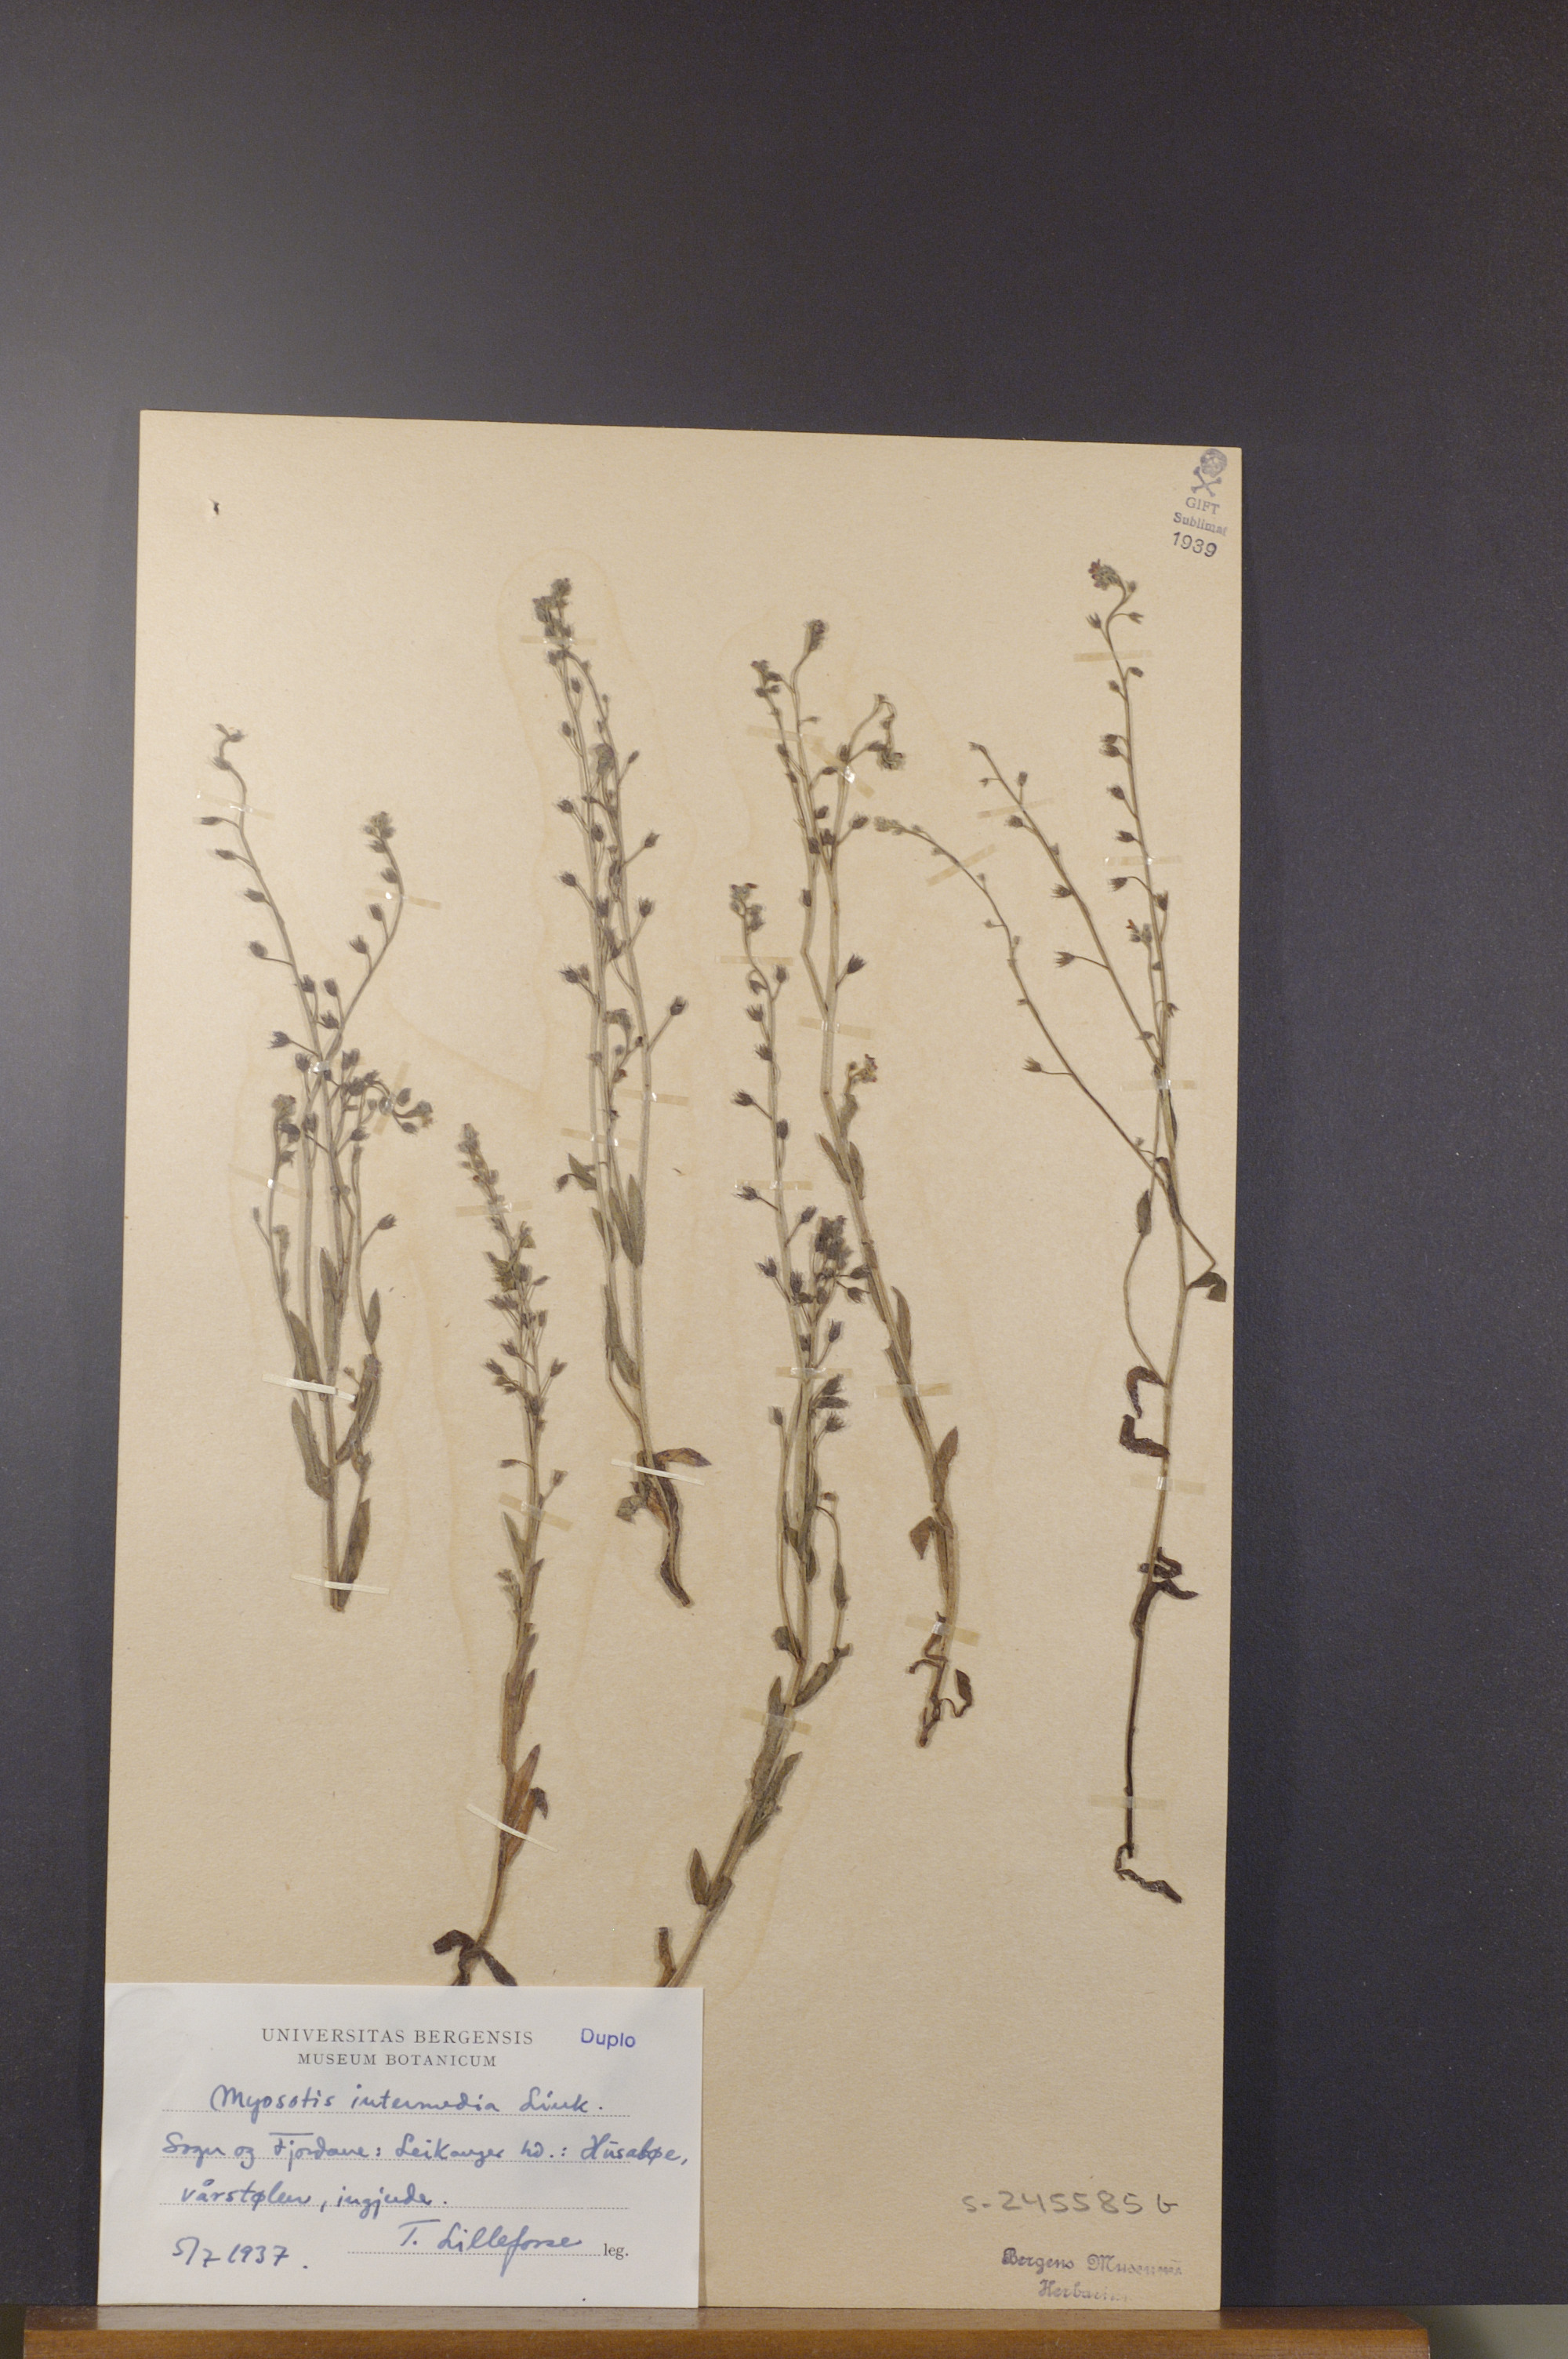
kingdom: Plantae
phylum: Tracheophyta
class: Magnoliopsida
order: Boraginales
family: Boraginaceae
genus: Myosotis
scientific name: Myosotis arvensis
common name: Field forget-me-not
